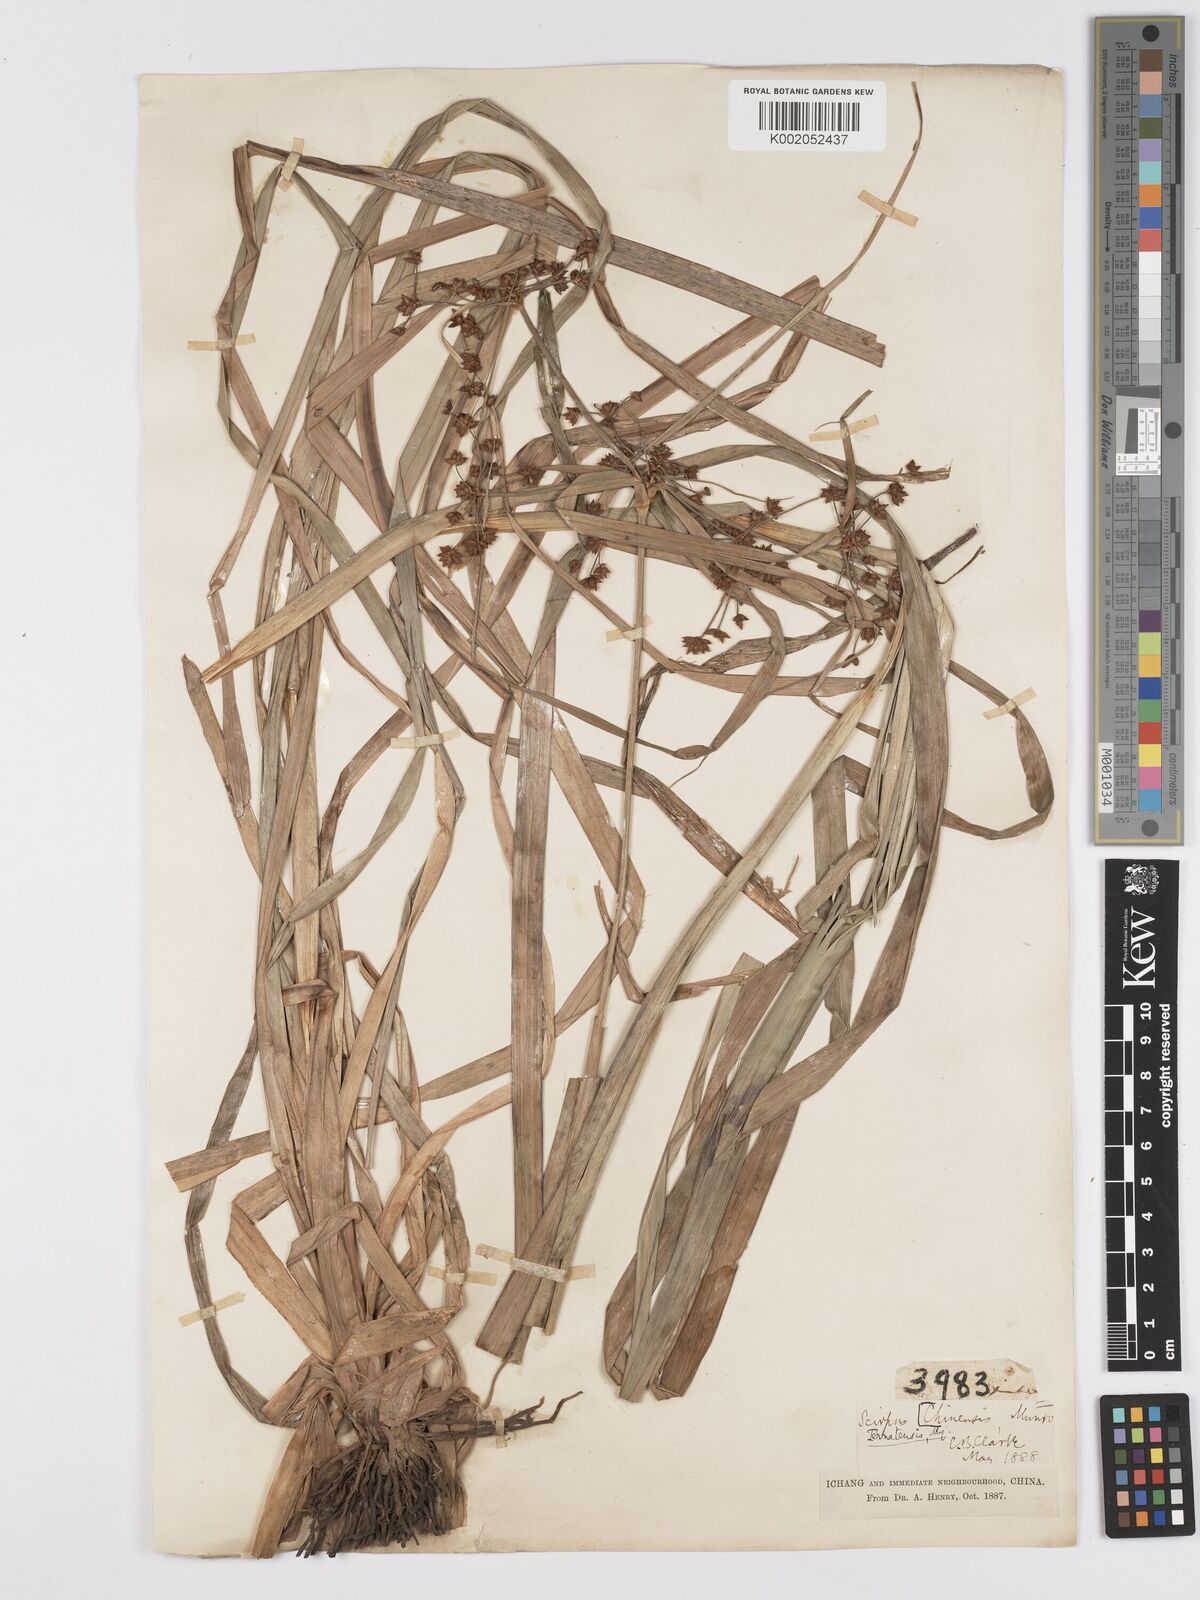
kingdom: Plantae
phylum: Tracheophyta
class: Liliopsida
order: Poales
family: Cyperaceae
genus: Scirpus
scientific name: Scirpus ternatanus
